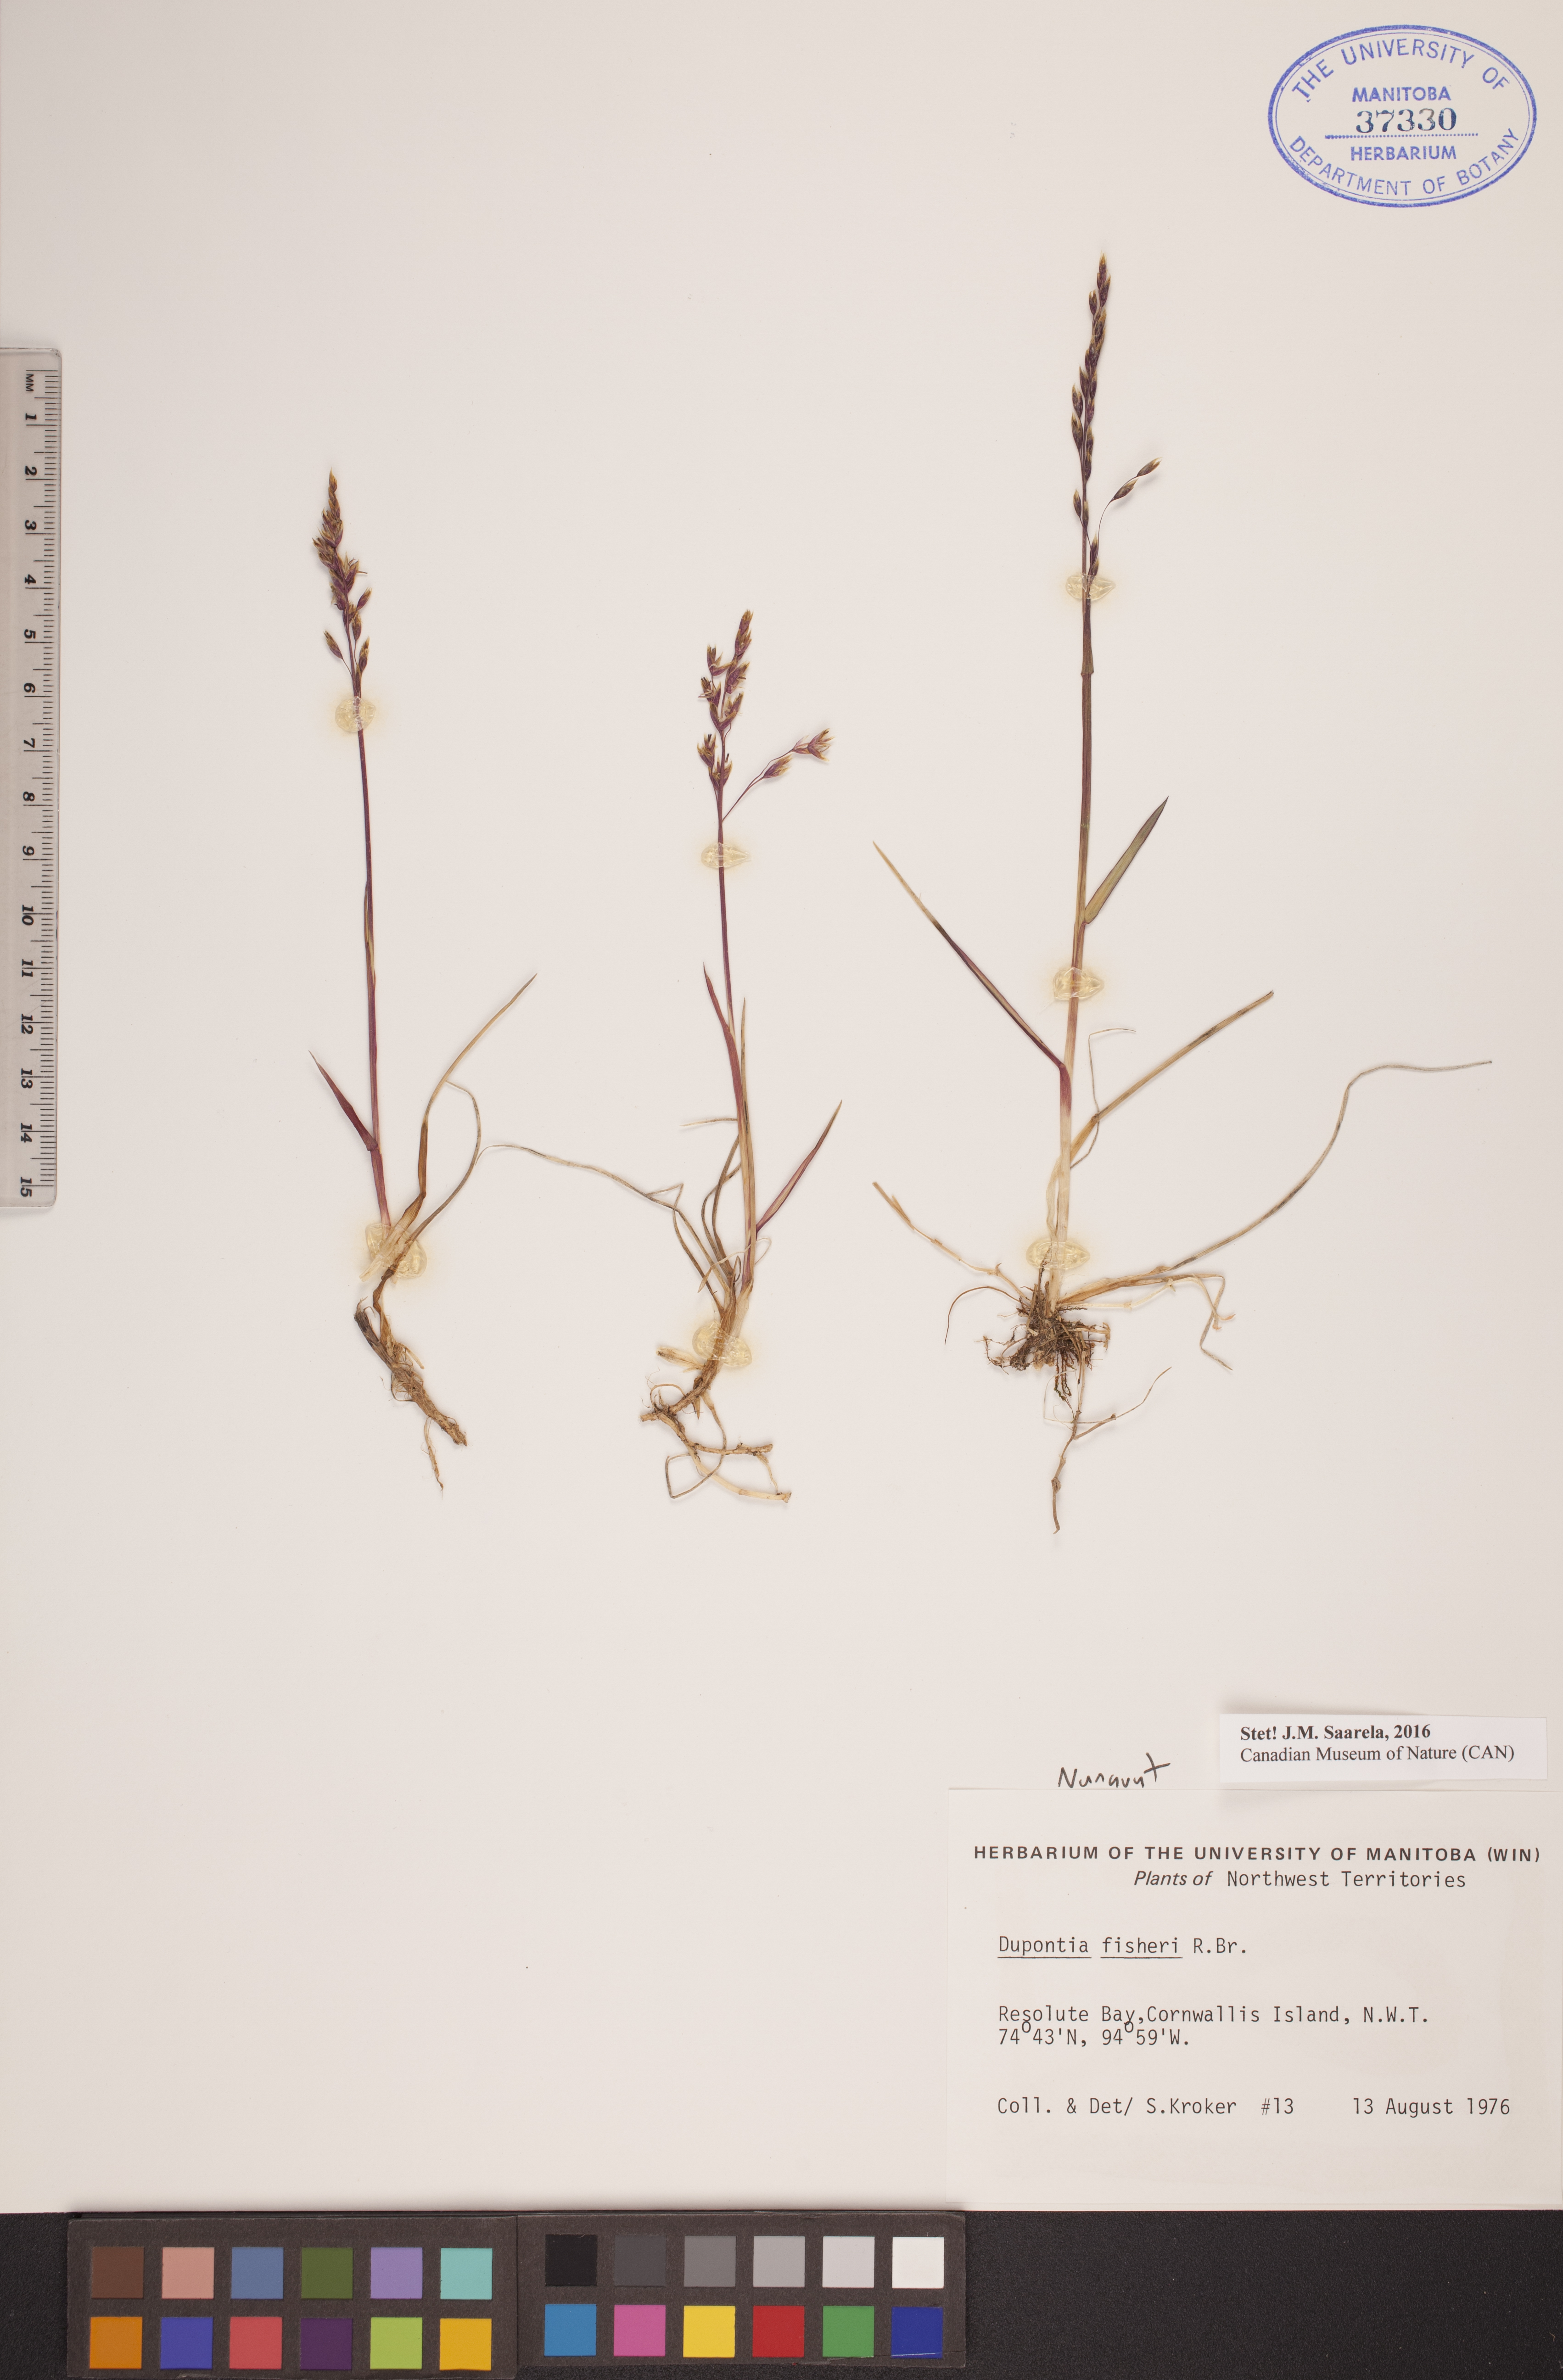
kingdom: Plantae
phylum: Tracheophyta
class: Liliopsida
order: Poales
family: Poaceae
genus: Dupontia
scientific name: Dupontia fisheri
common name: Tundra grass
